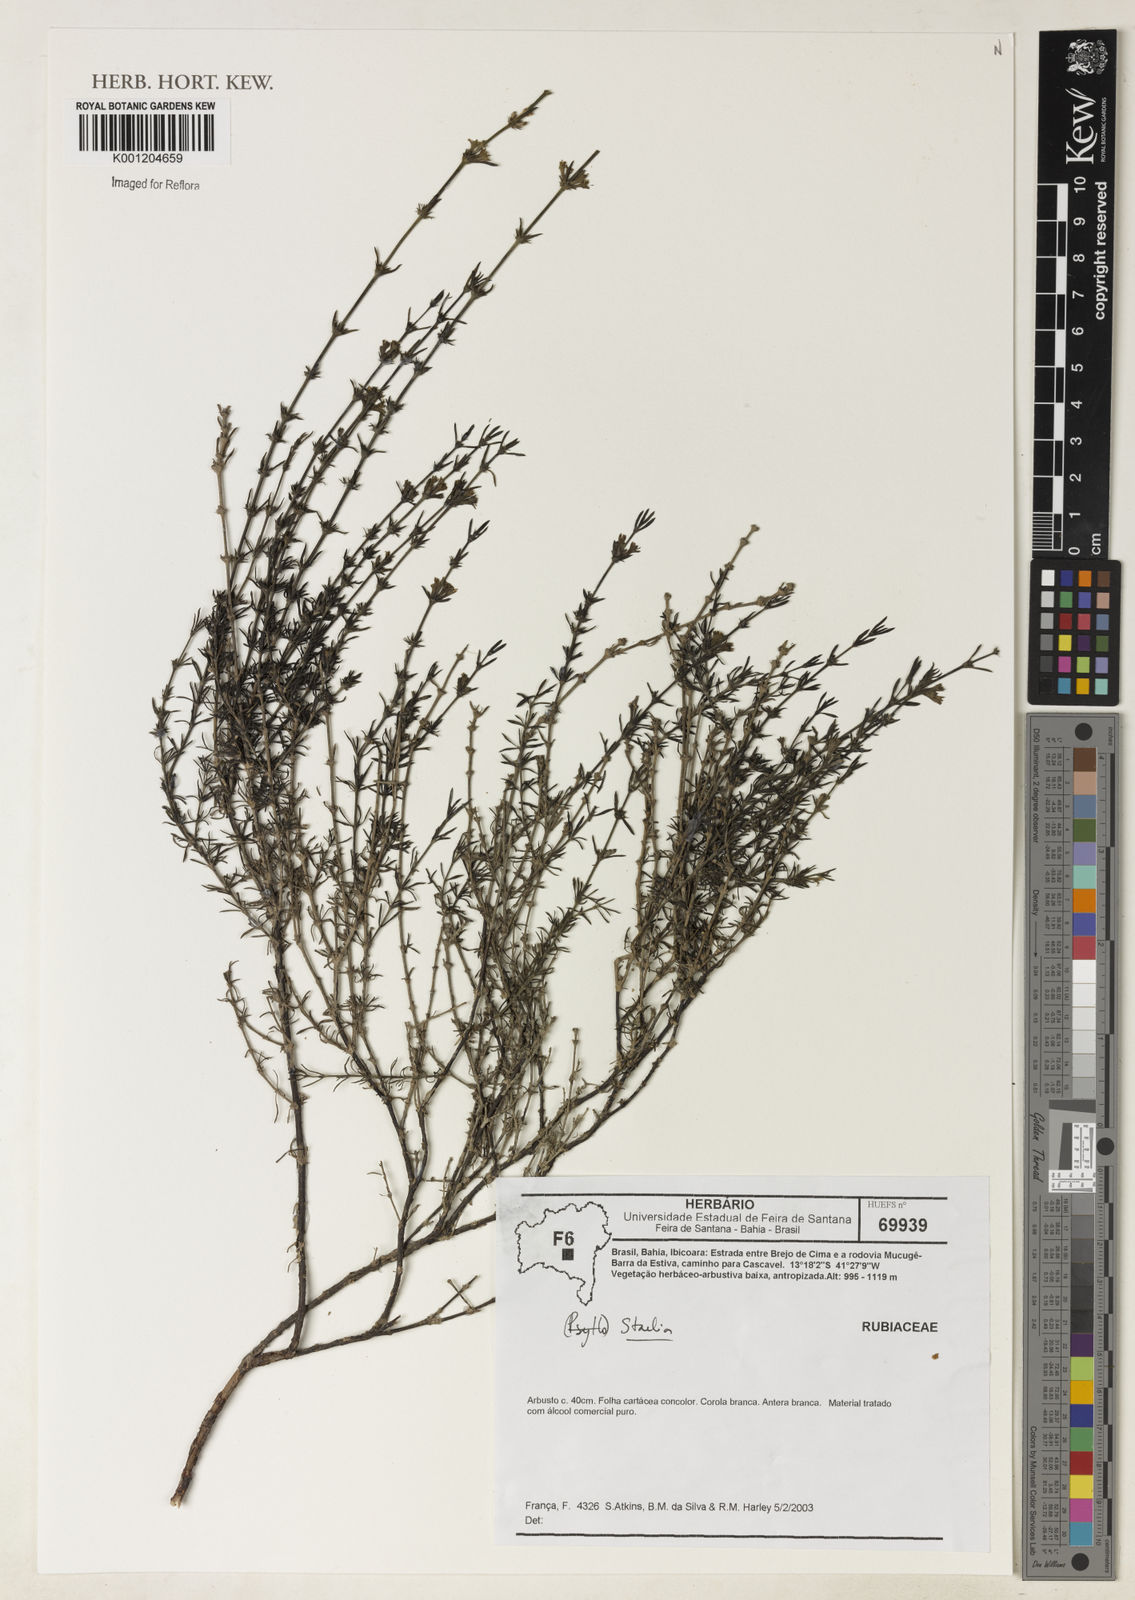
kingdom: Plantae
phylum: Tracheophyta
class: Magnoliopsida
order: Gentianales
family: Rubiaceae
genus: Staelia
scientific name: Staelia
